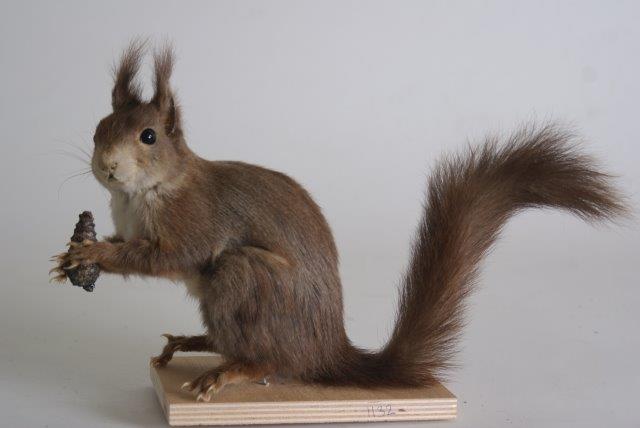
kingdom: Animalia
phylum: Chordata
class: Mammalia
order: Rodentia
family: Sciuridae
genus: Sciurus
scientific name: Sciurus vulgaris
